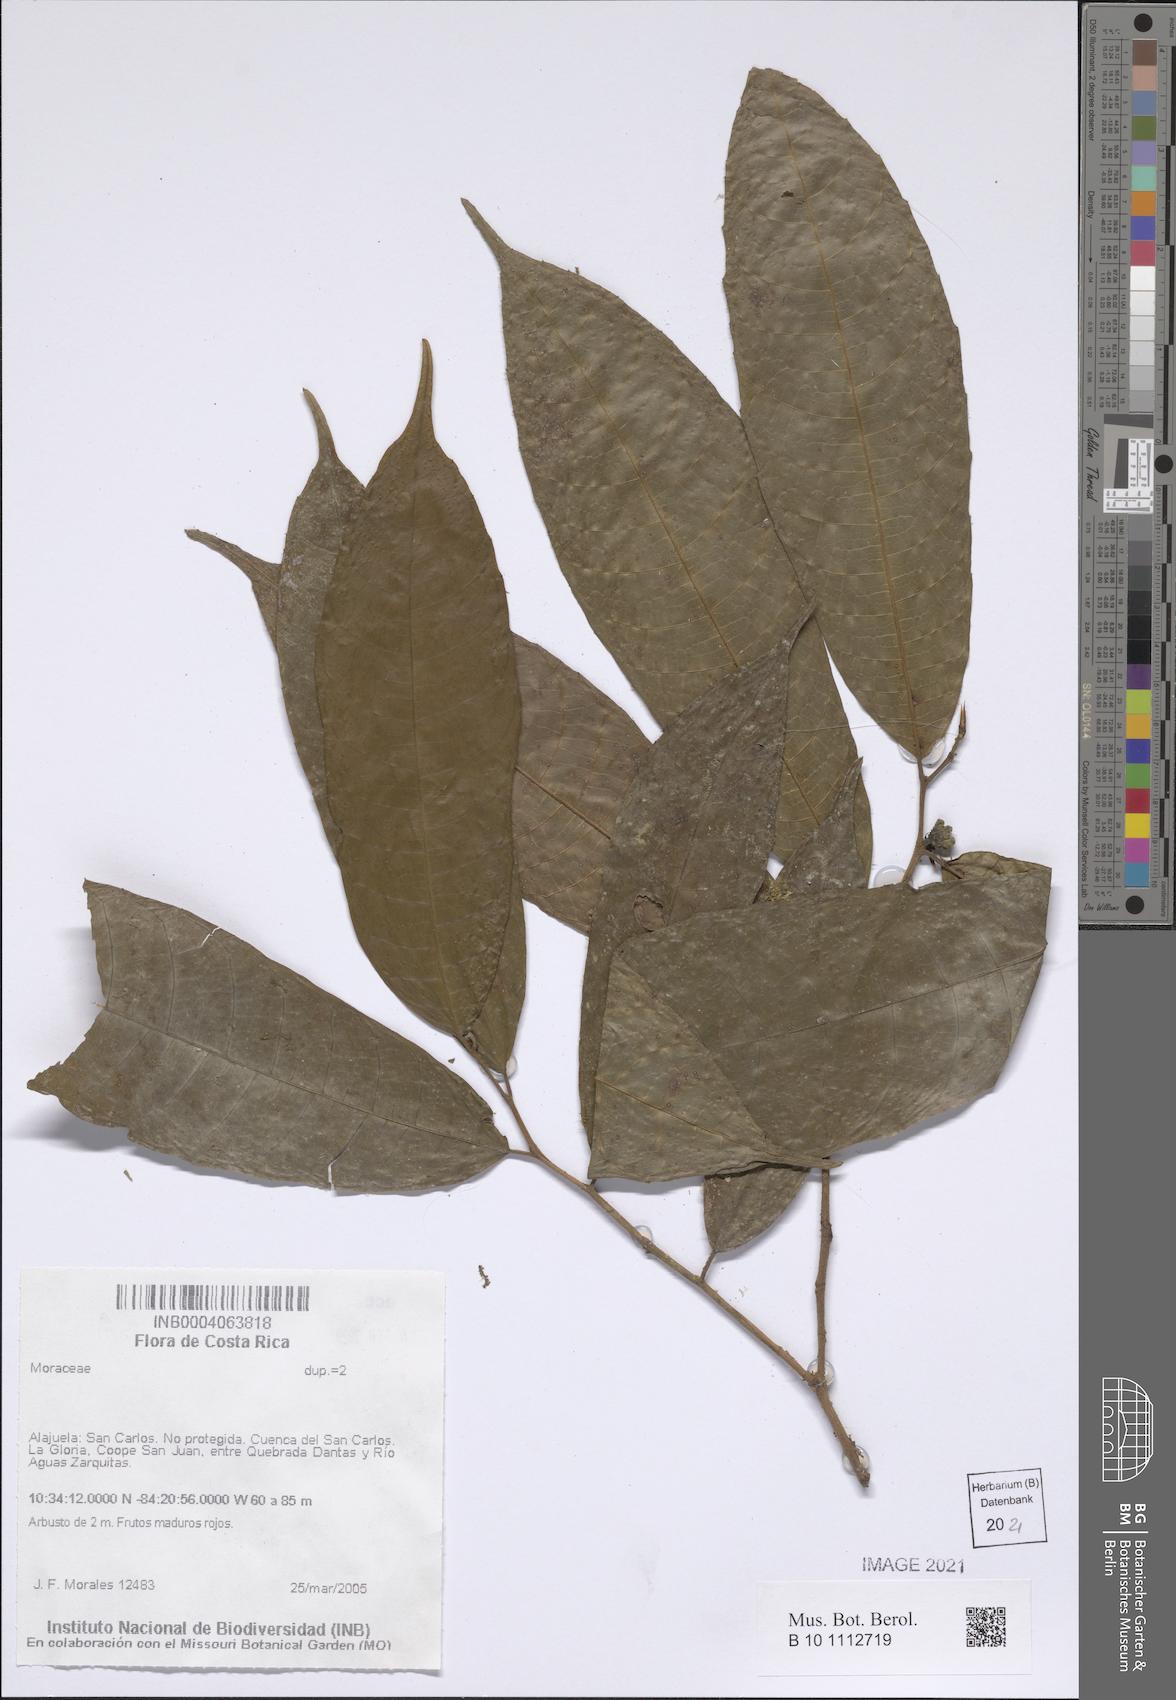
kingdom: Plantae
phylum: Tracheophyta
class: Liliopsida
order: Asparagales
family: Iridaceae
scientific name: Iridaceae
